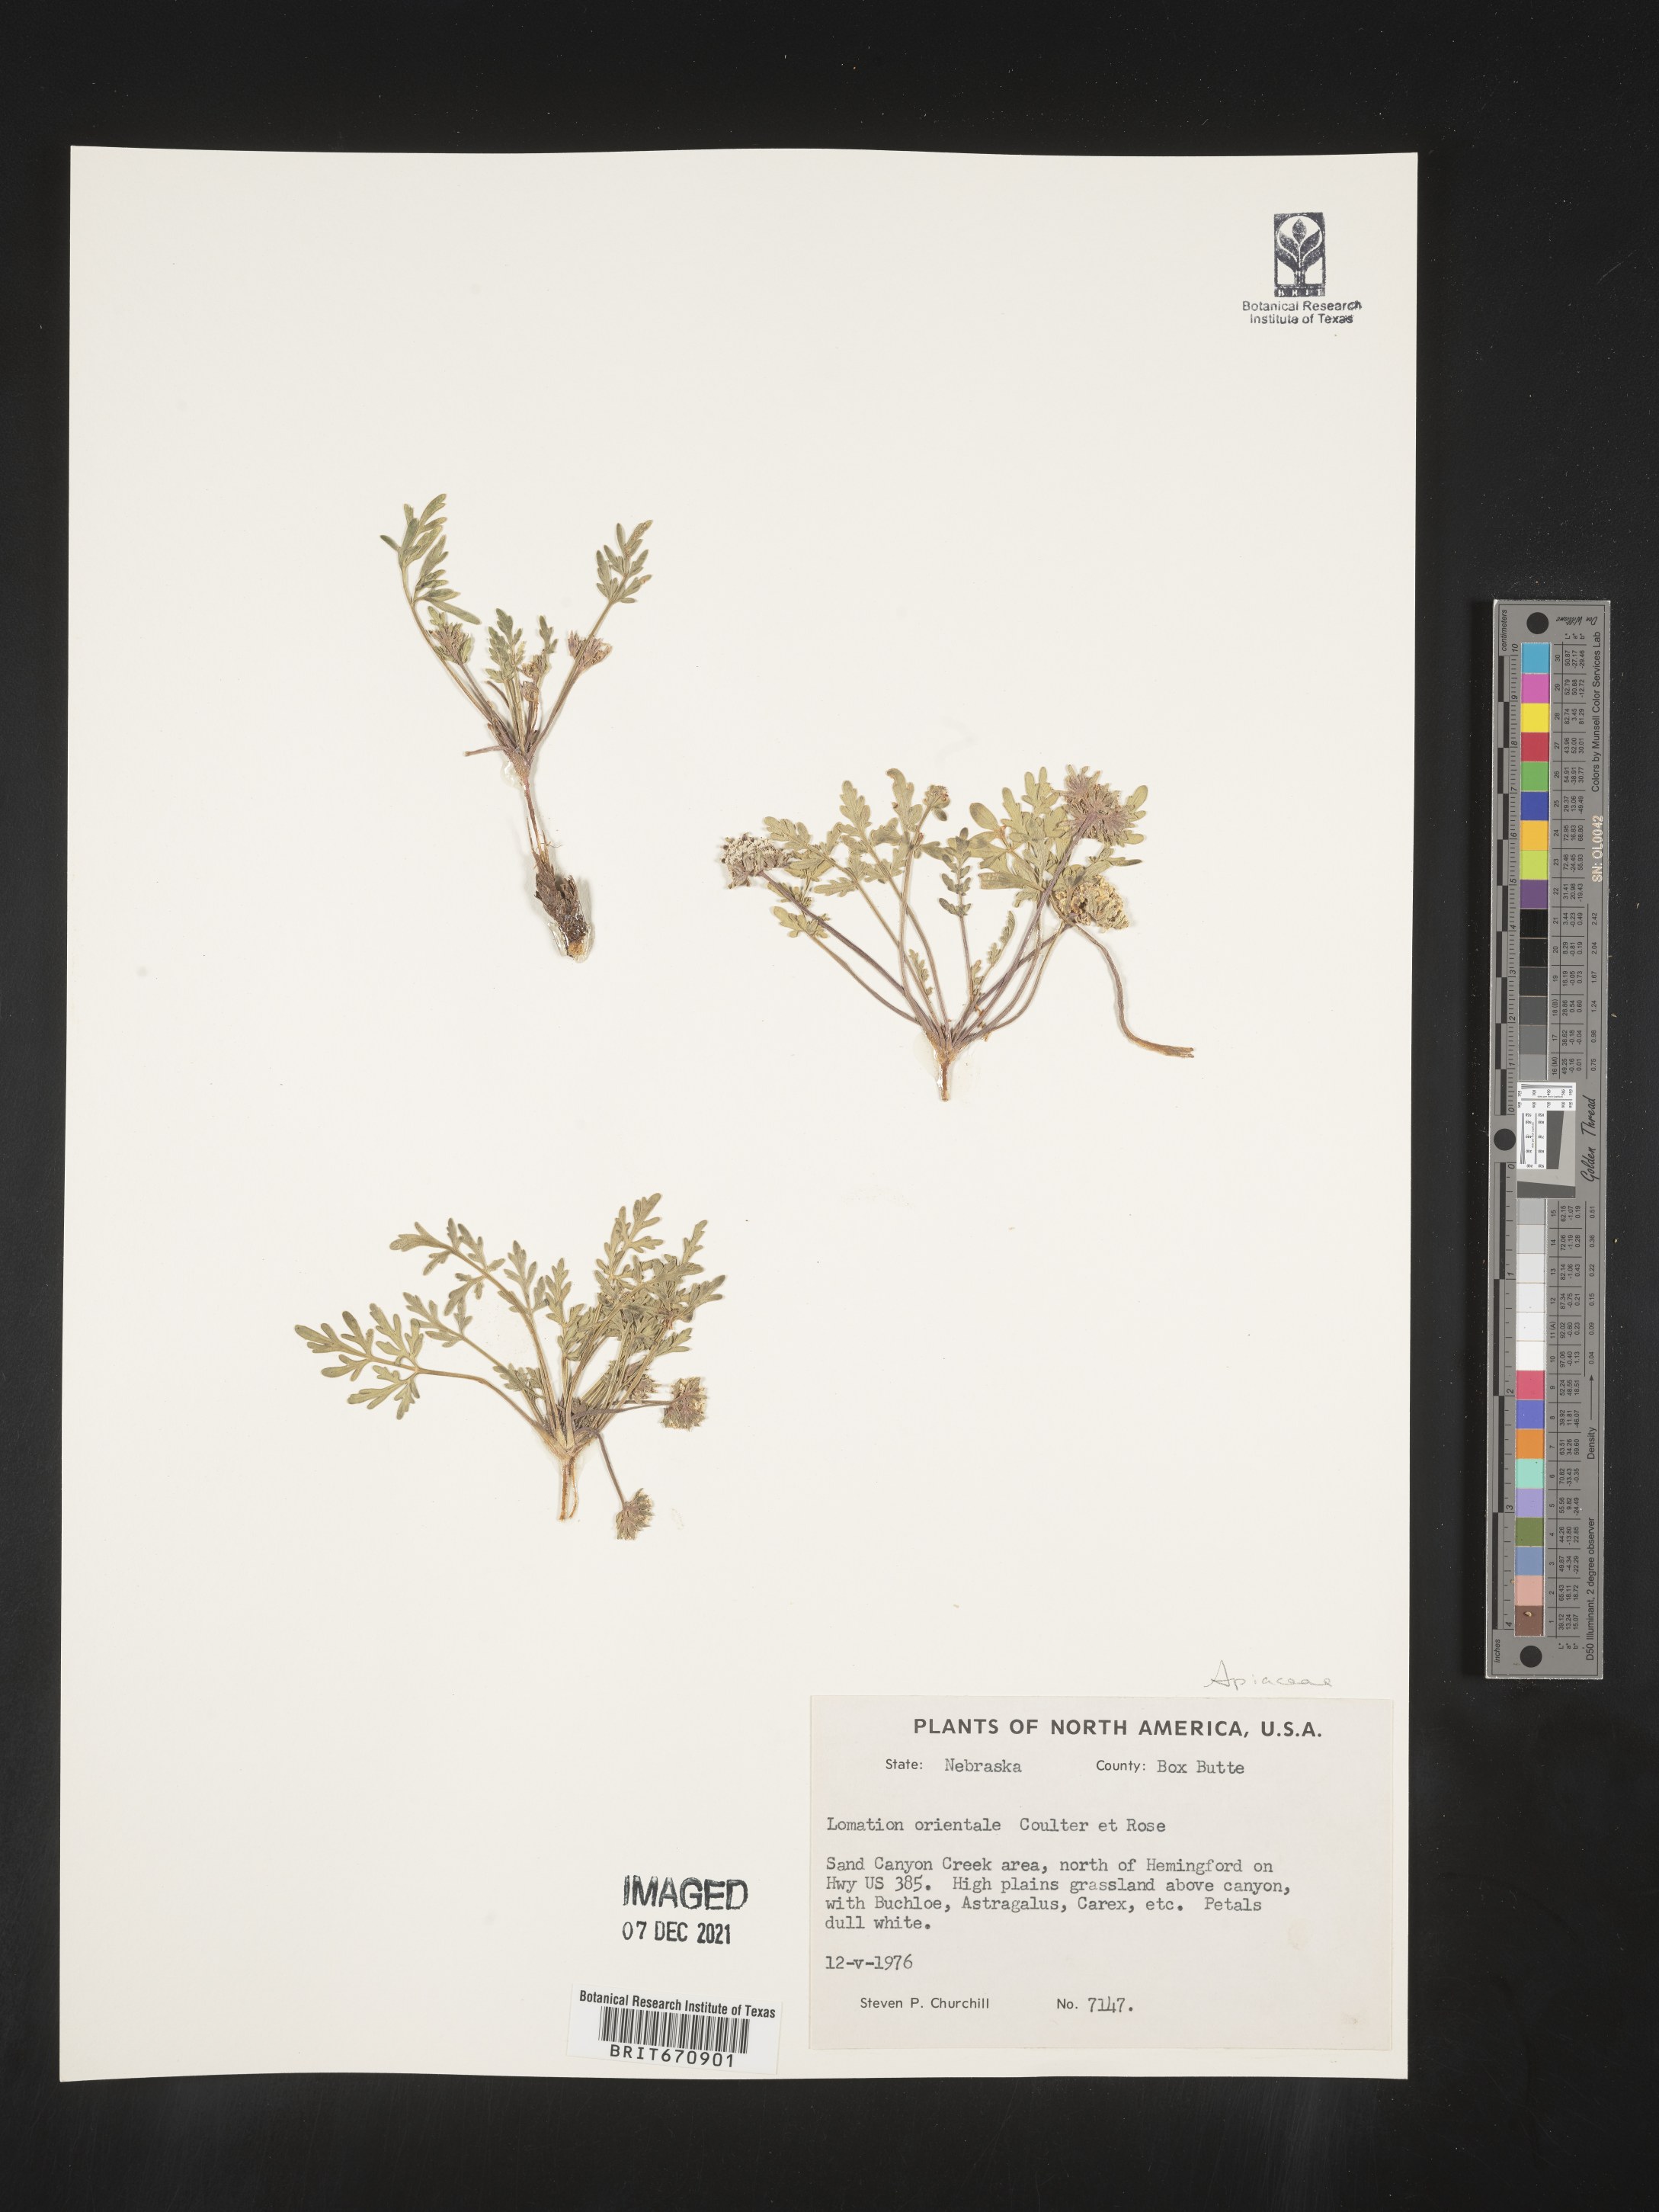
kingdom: Plantae
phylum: Tracheophyta
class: Magnoliopsida
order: Apiales
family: Apiaceae
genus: Lomatium
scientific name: Lomatium
